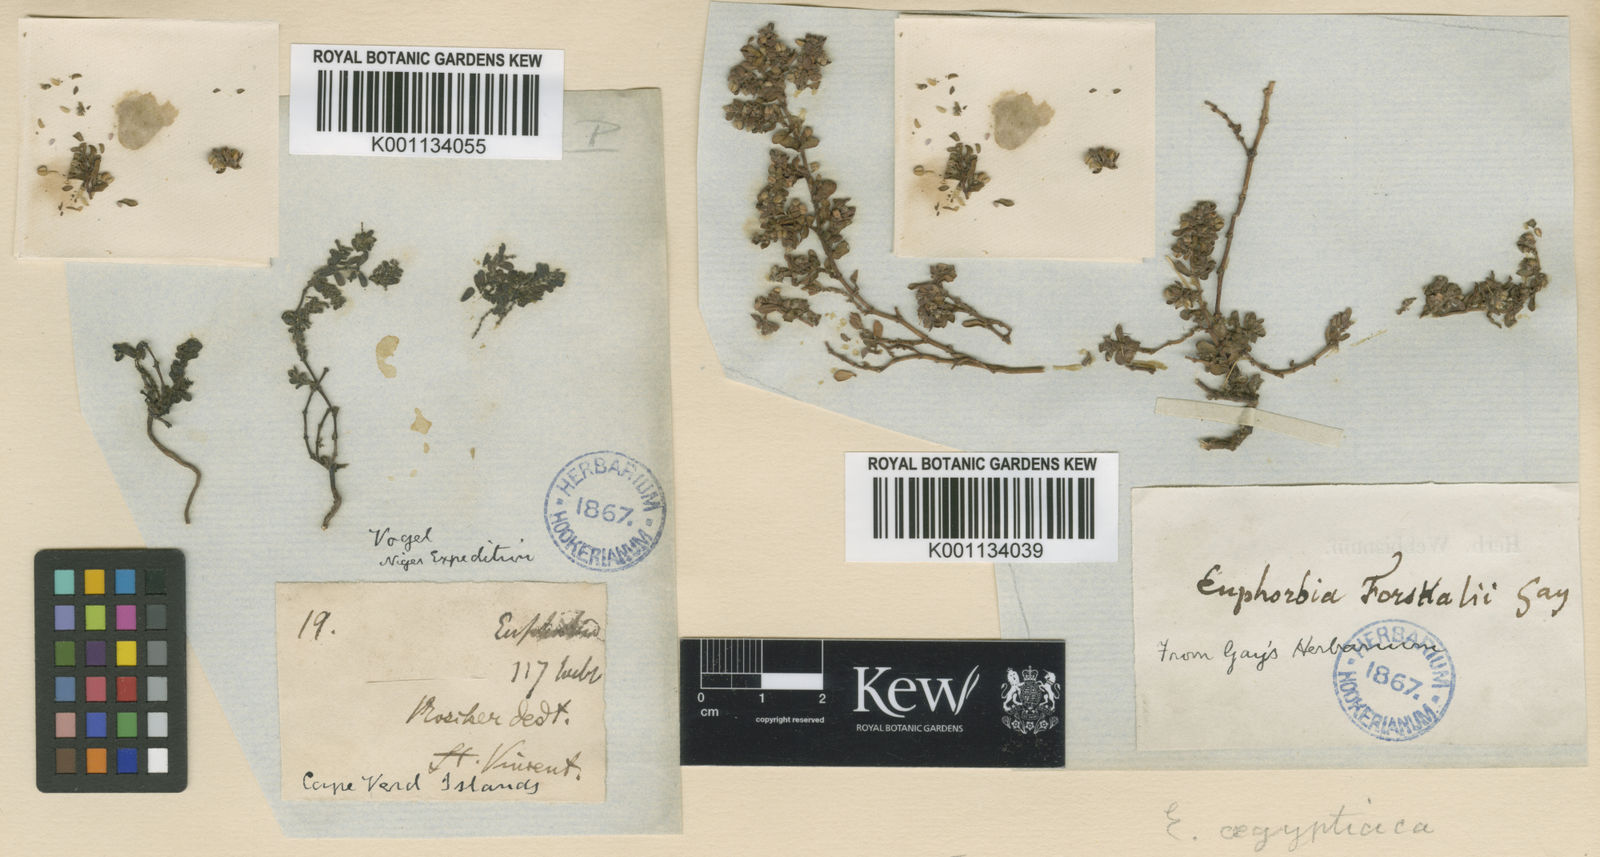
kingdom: Plantae
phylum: Tracheophyta
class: Magnoliopsida
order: Malpighiales
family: Euphorbiaceae
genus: Euphorbia
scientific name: Euphorbia
